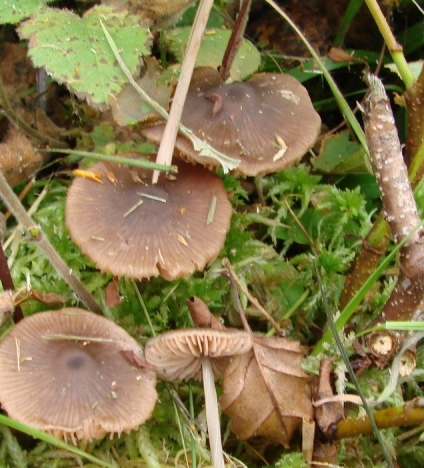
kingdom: Fungi
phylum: Basidiomycota
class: Agaricomycetes
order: Agaricales
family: Entolomataceae
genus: Entoloma
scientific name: Entoloma conferendum
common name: stjernesporet rødblad
